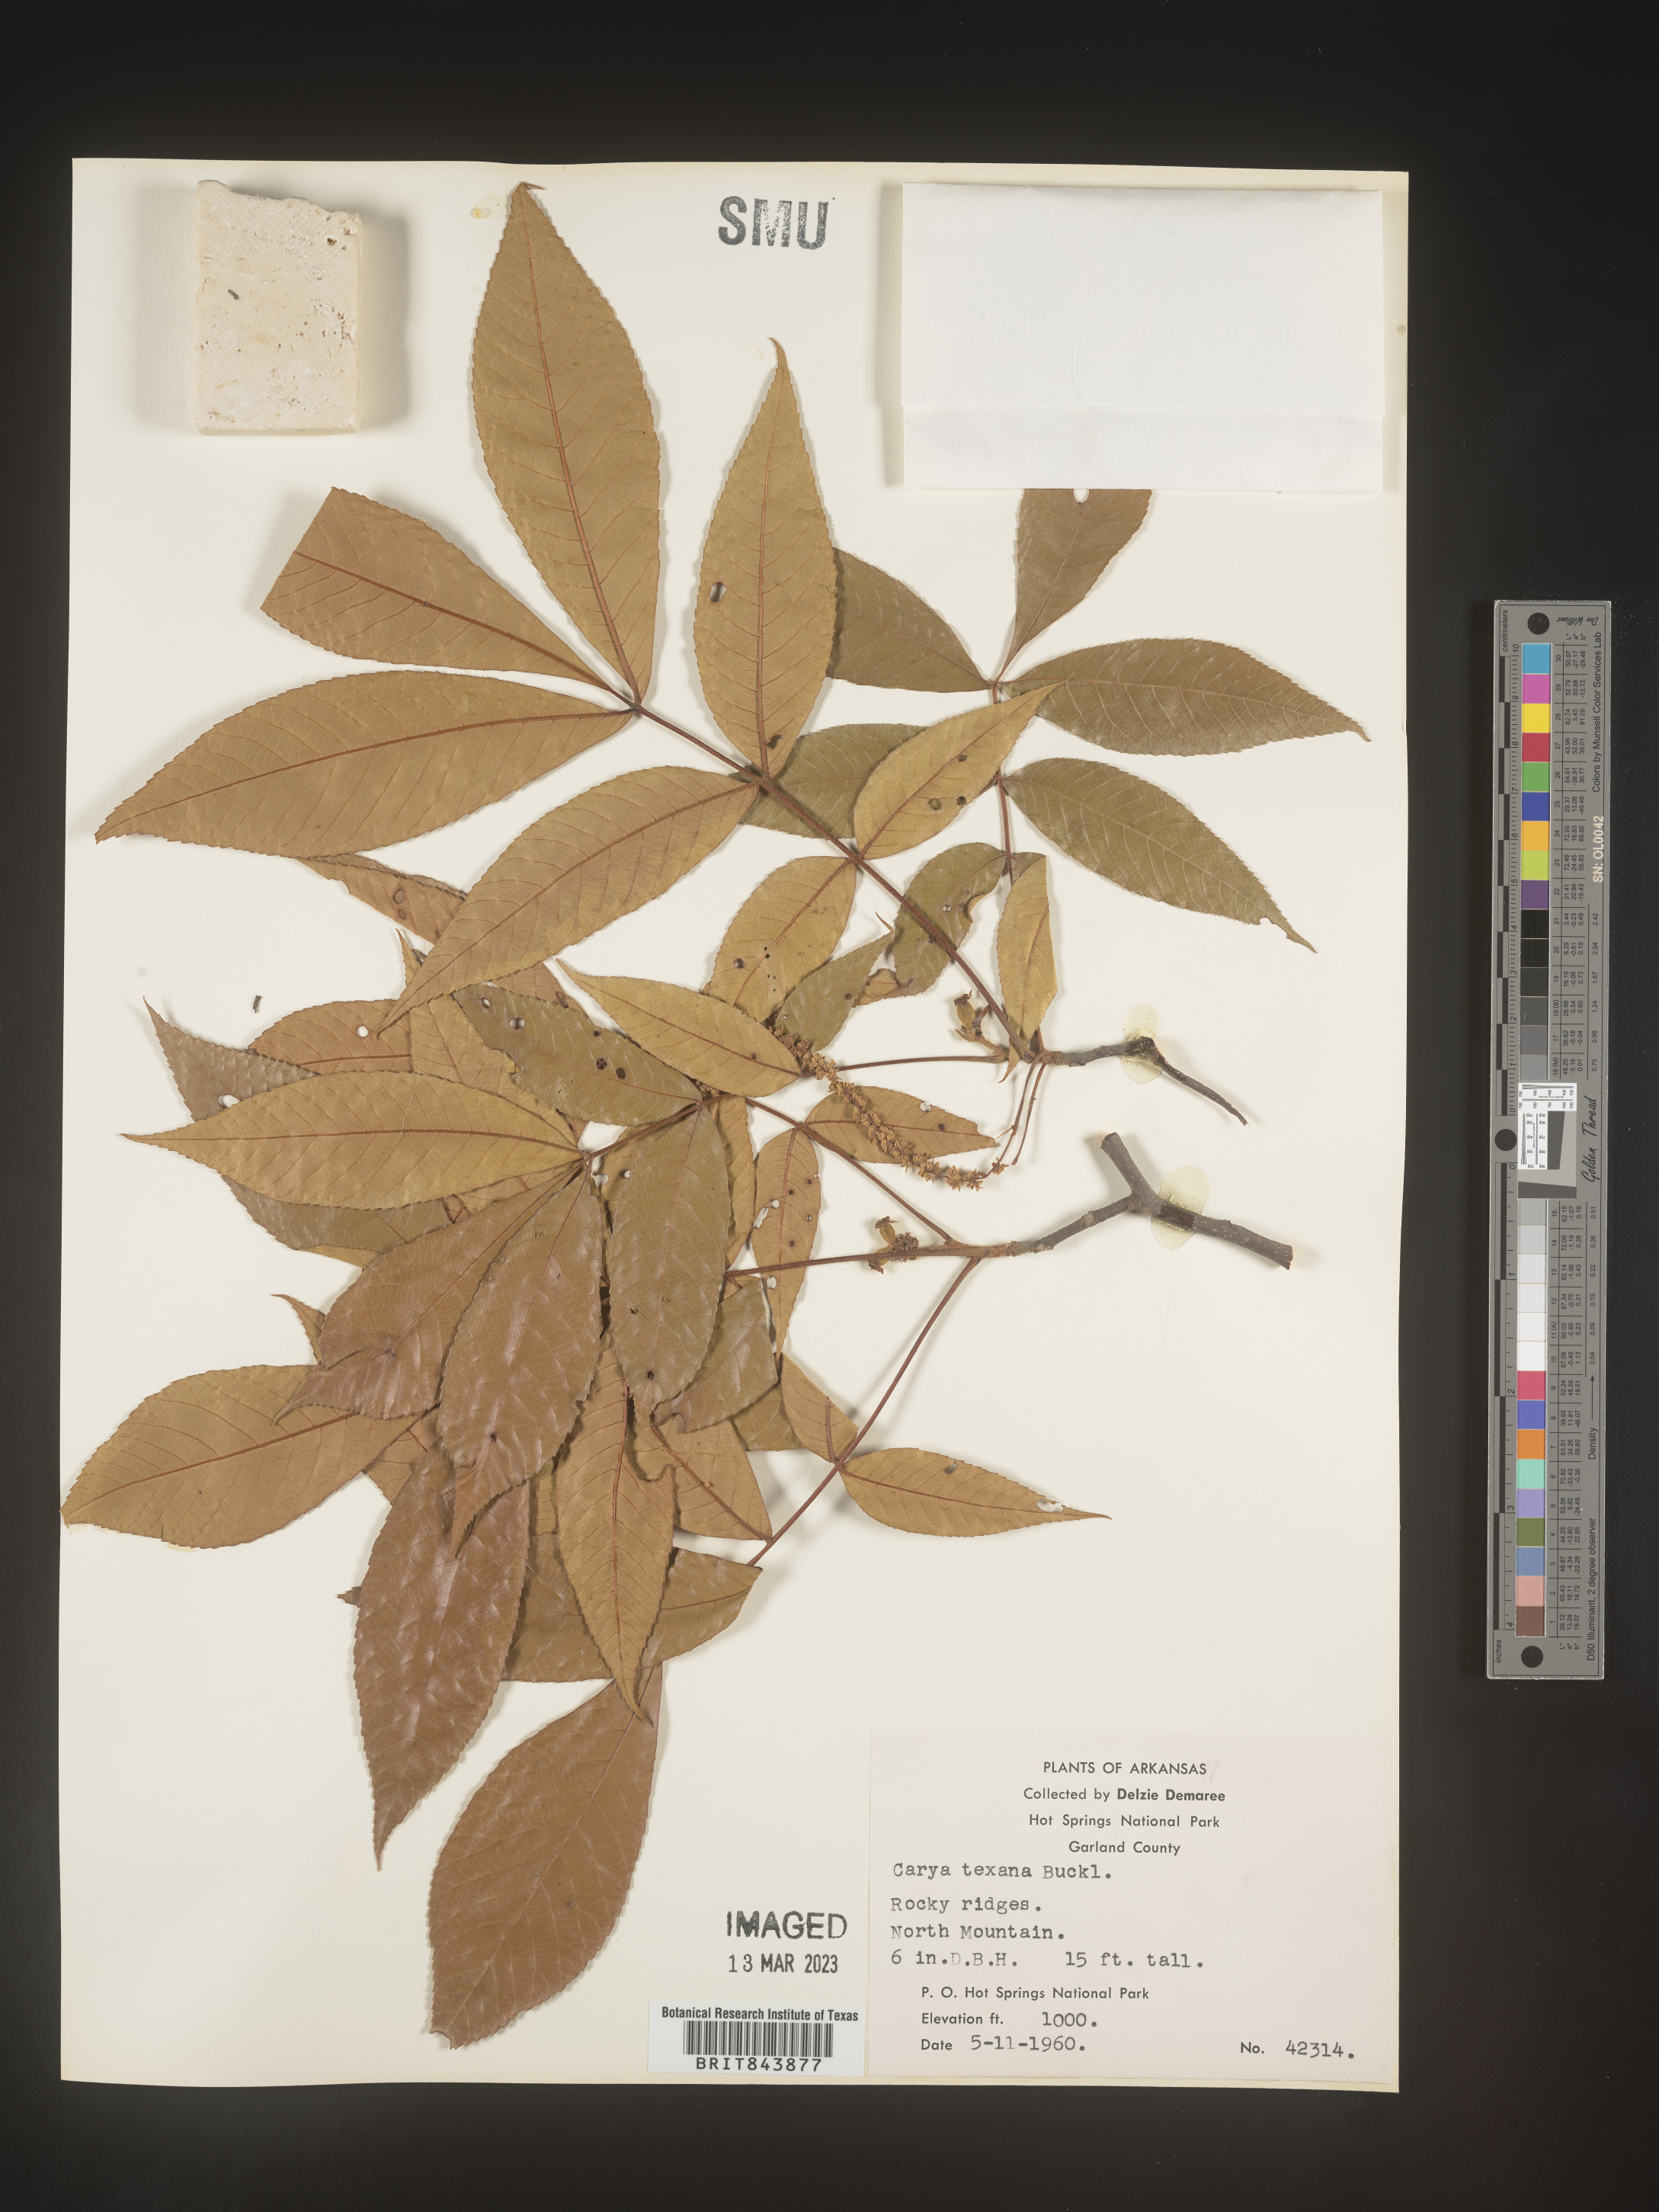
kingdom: Plantae
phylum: Tracheophyta
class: Magnoliopsida
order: Fagales
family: Juglandaceae
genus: Carya
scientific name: Carya texana
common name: Black hickory
